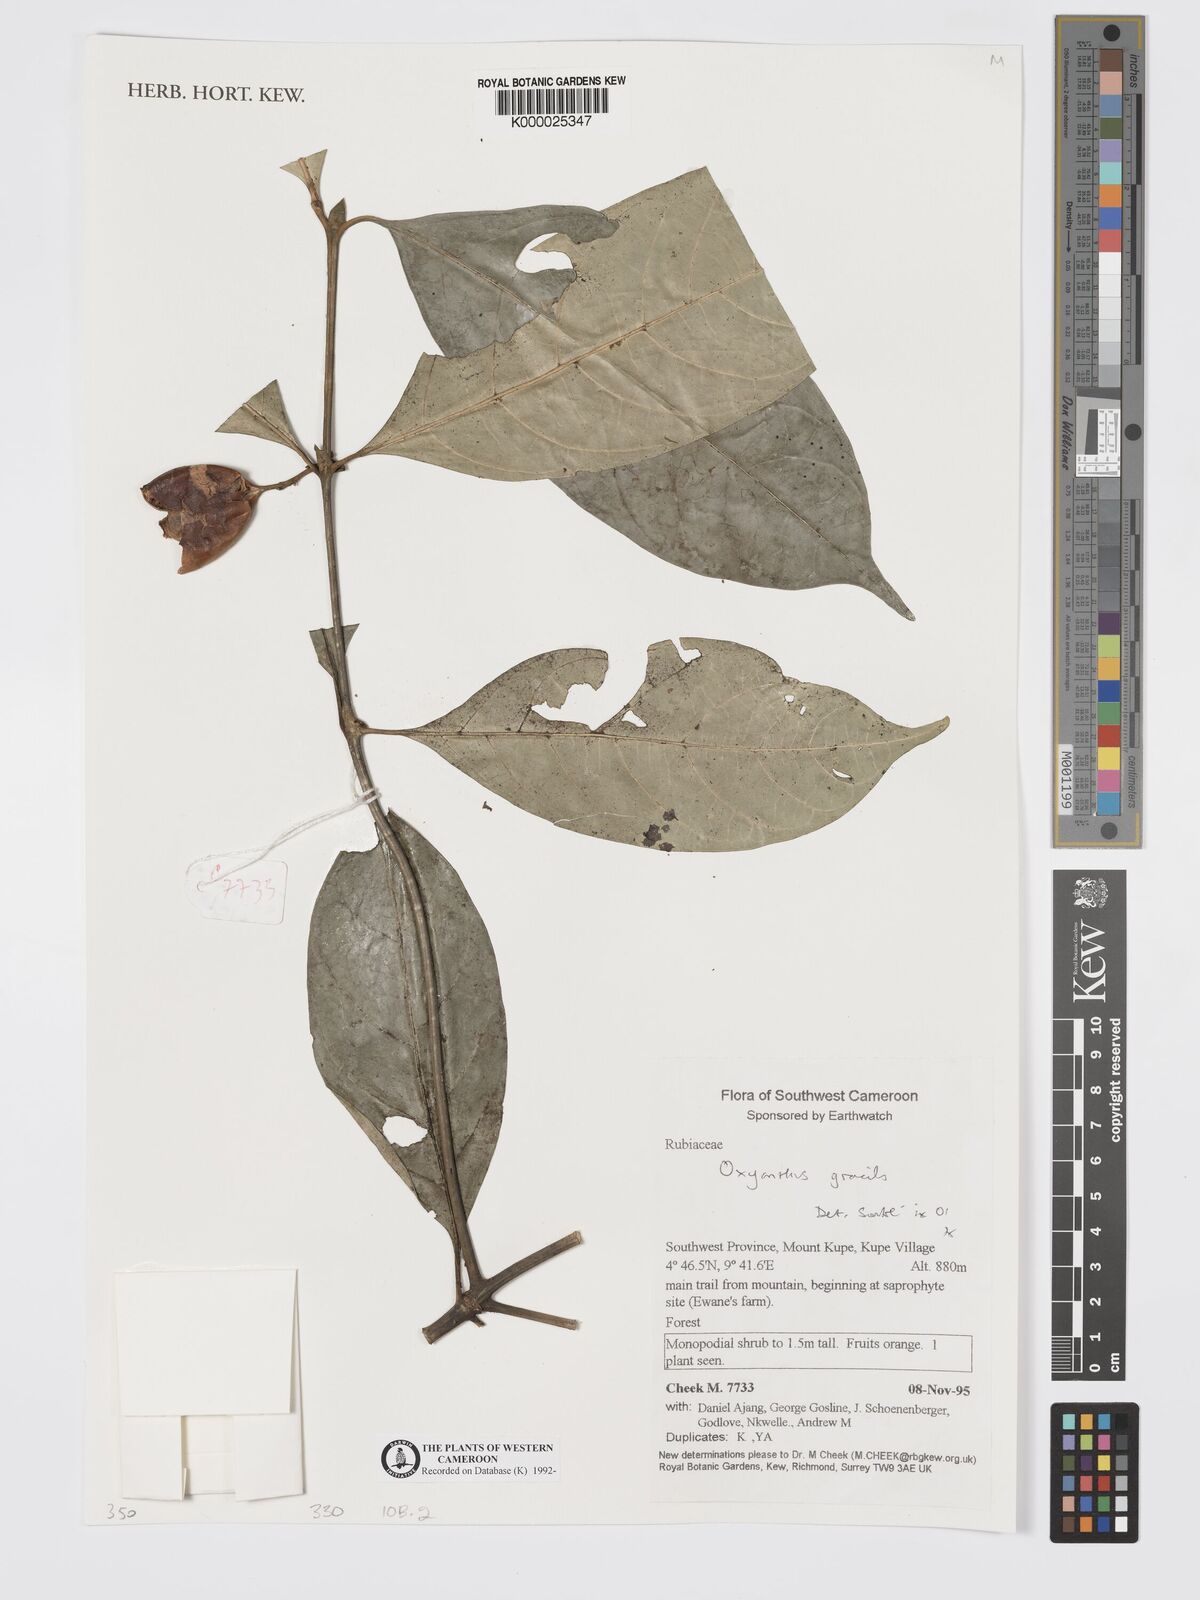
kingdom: Plantae
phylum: Tracheophyta
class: Magnoliopsida
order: Gentianales
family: Rubiaceae
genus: Oxyanthus
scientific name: Oxyanthus gracilis
